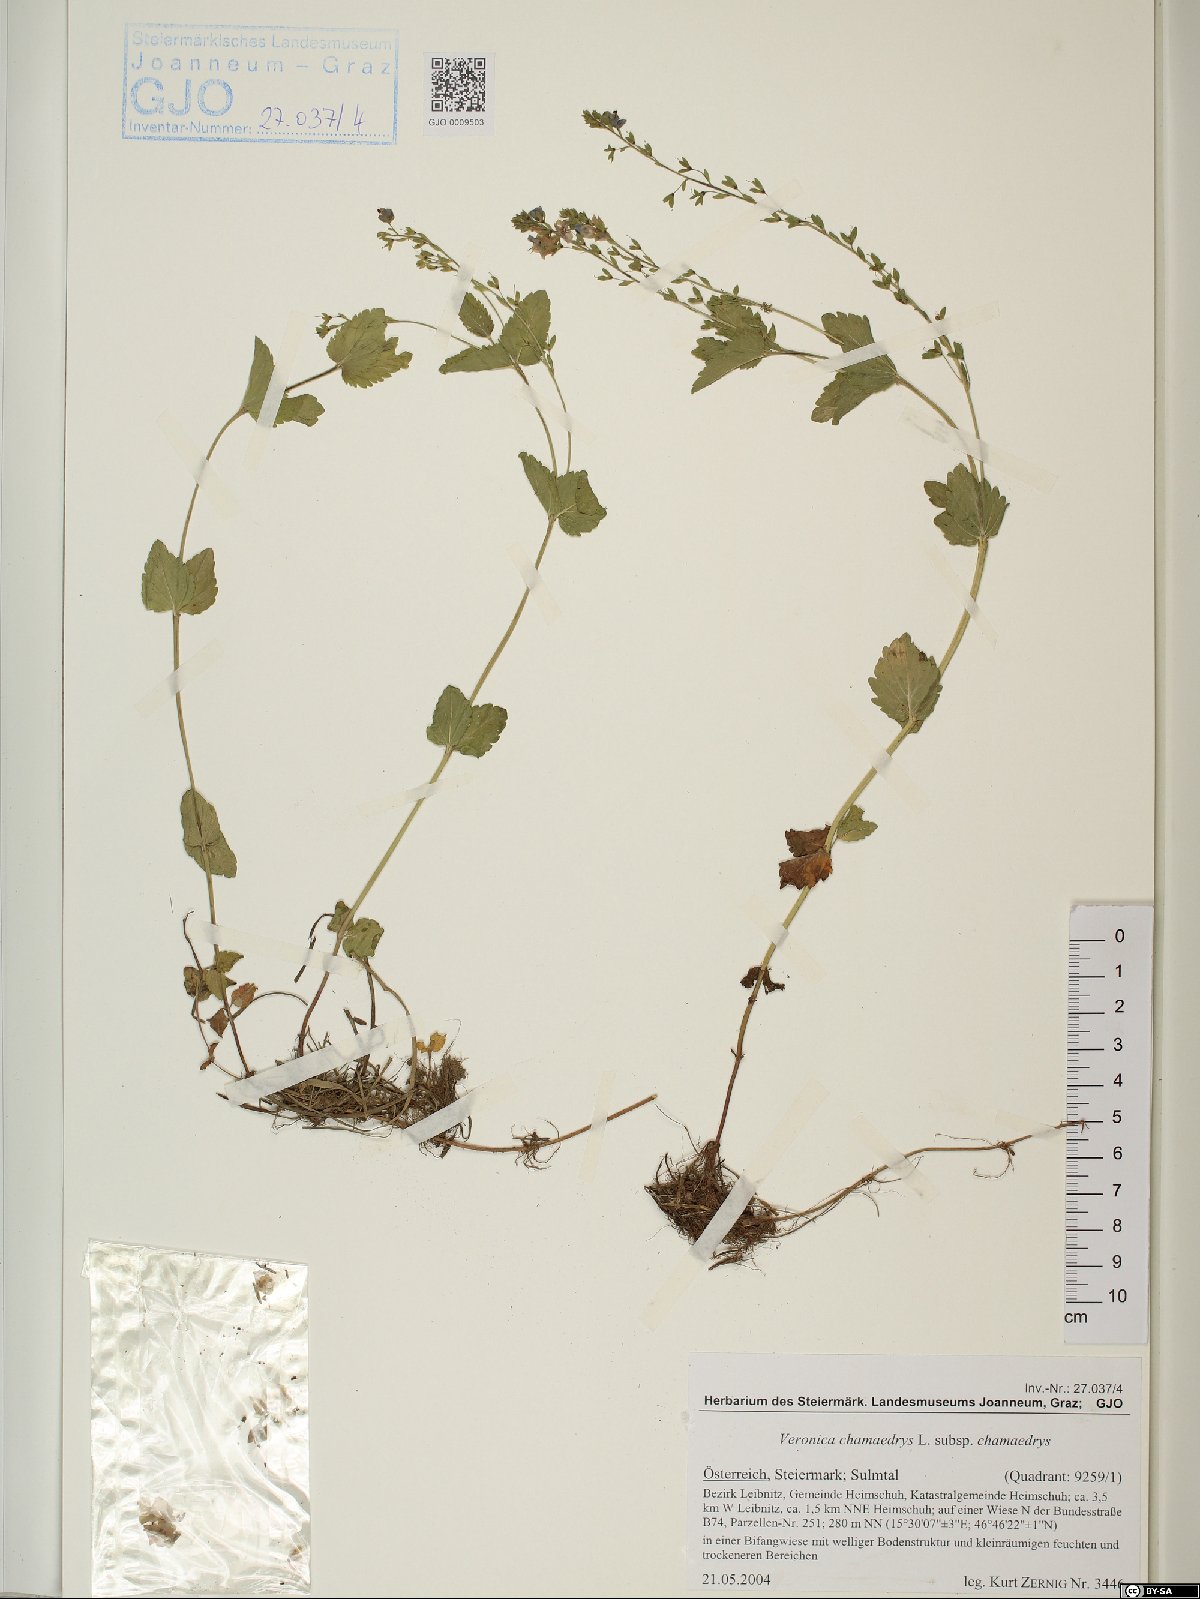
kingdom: Plantae
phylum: Tracheophyta
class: Magnoliopsida
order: Lamiales
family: Plantaginaceae
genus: Veronica
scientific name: Veronica chamaedrys
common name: Germander speedwell
